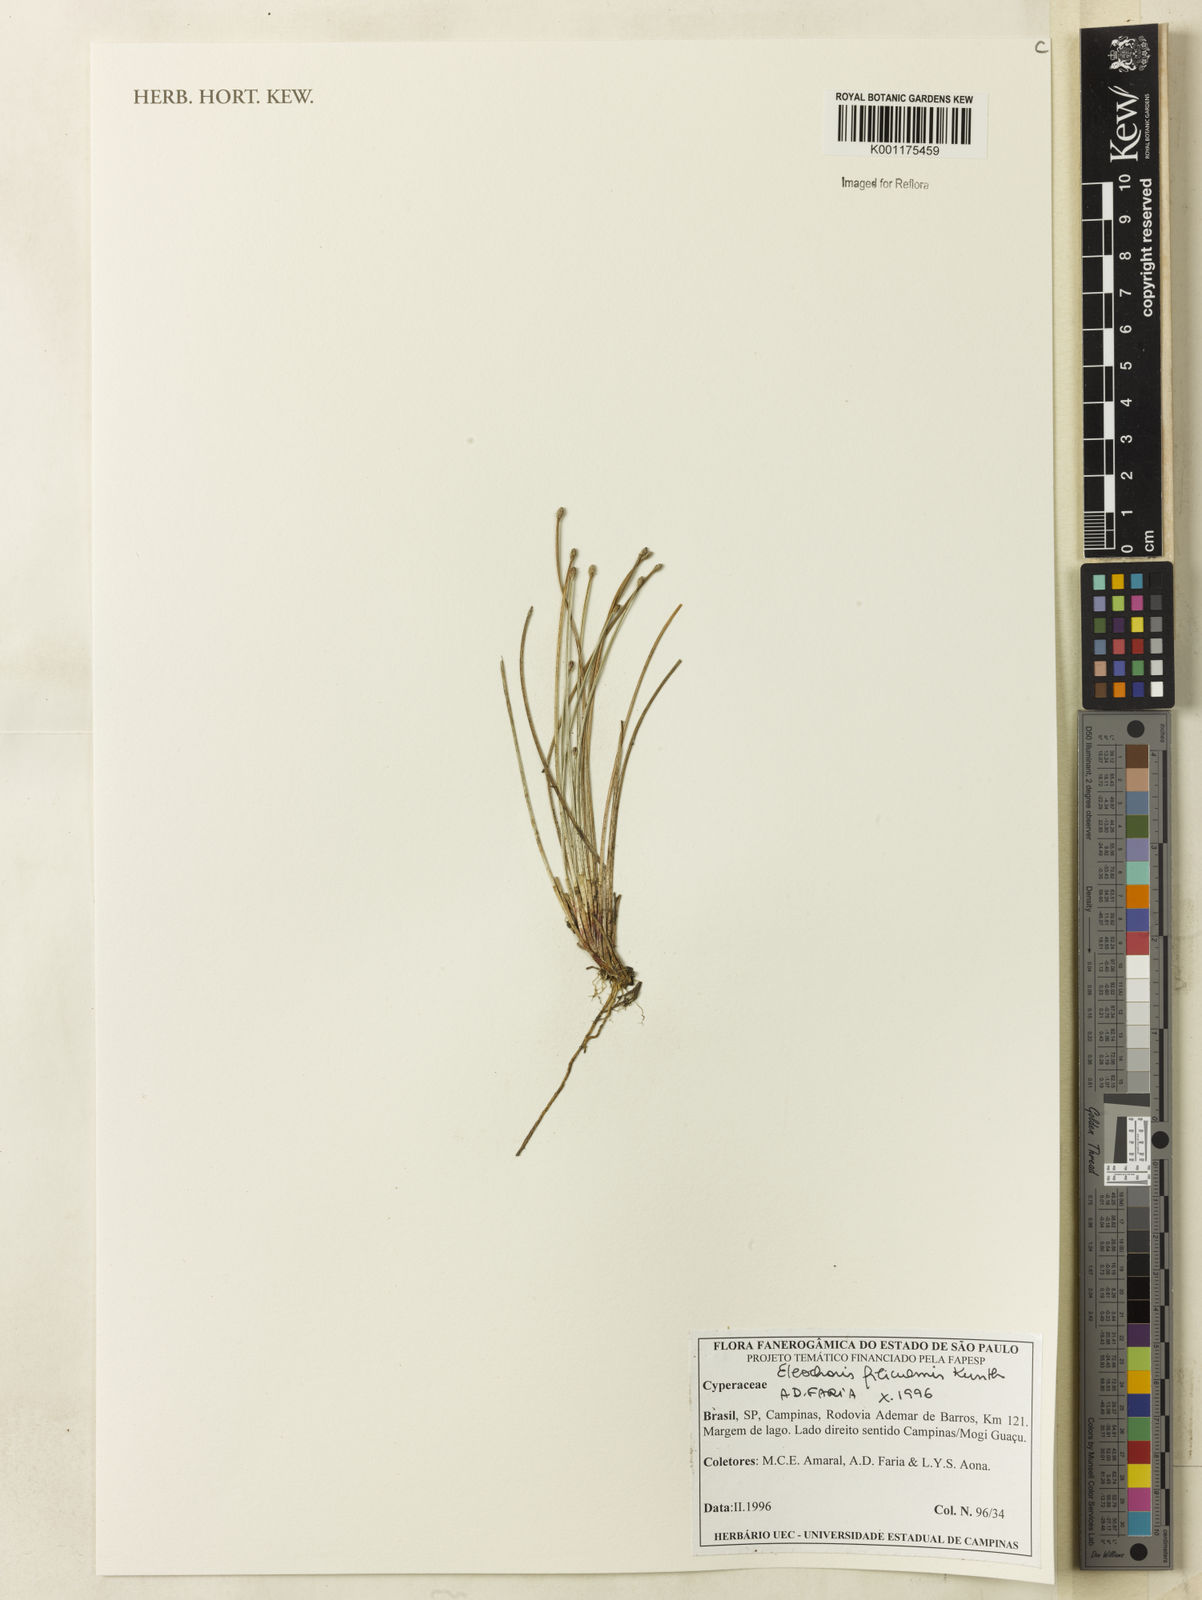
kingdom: Plantae
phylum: Tracheophyta
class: Liliopsida
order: Poales
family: Cyperaceae
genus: Eleocharis
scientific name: Eleocharis filiculmis
